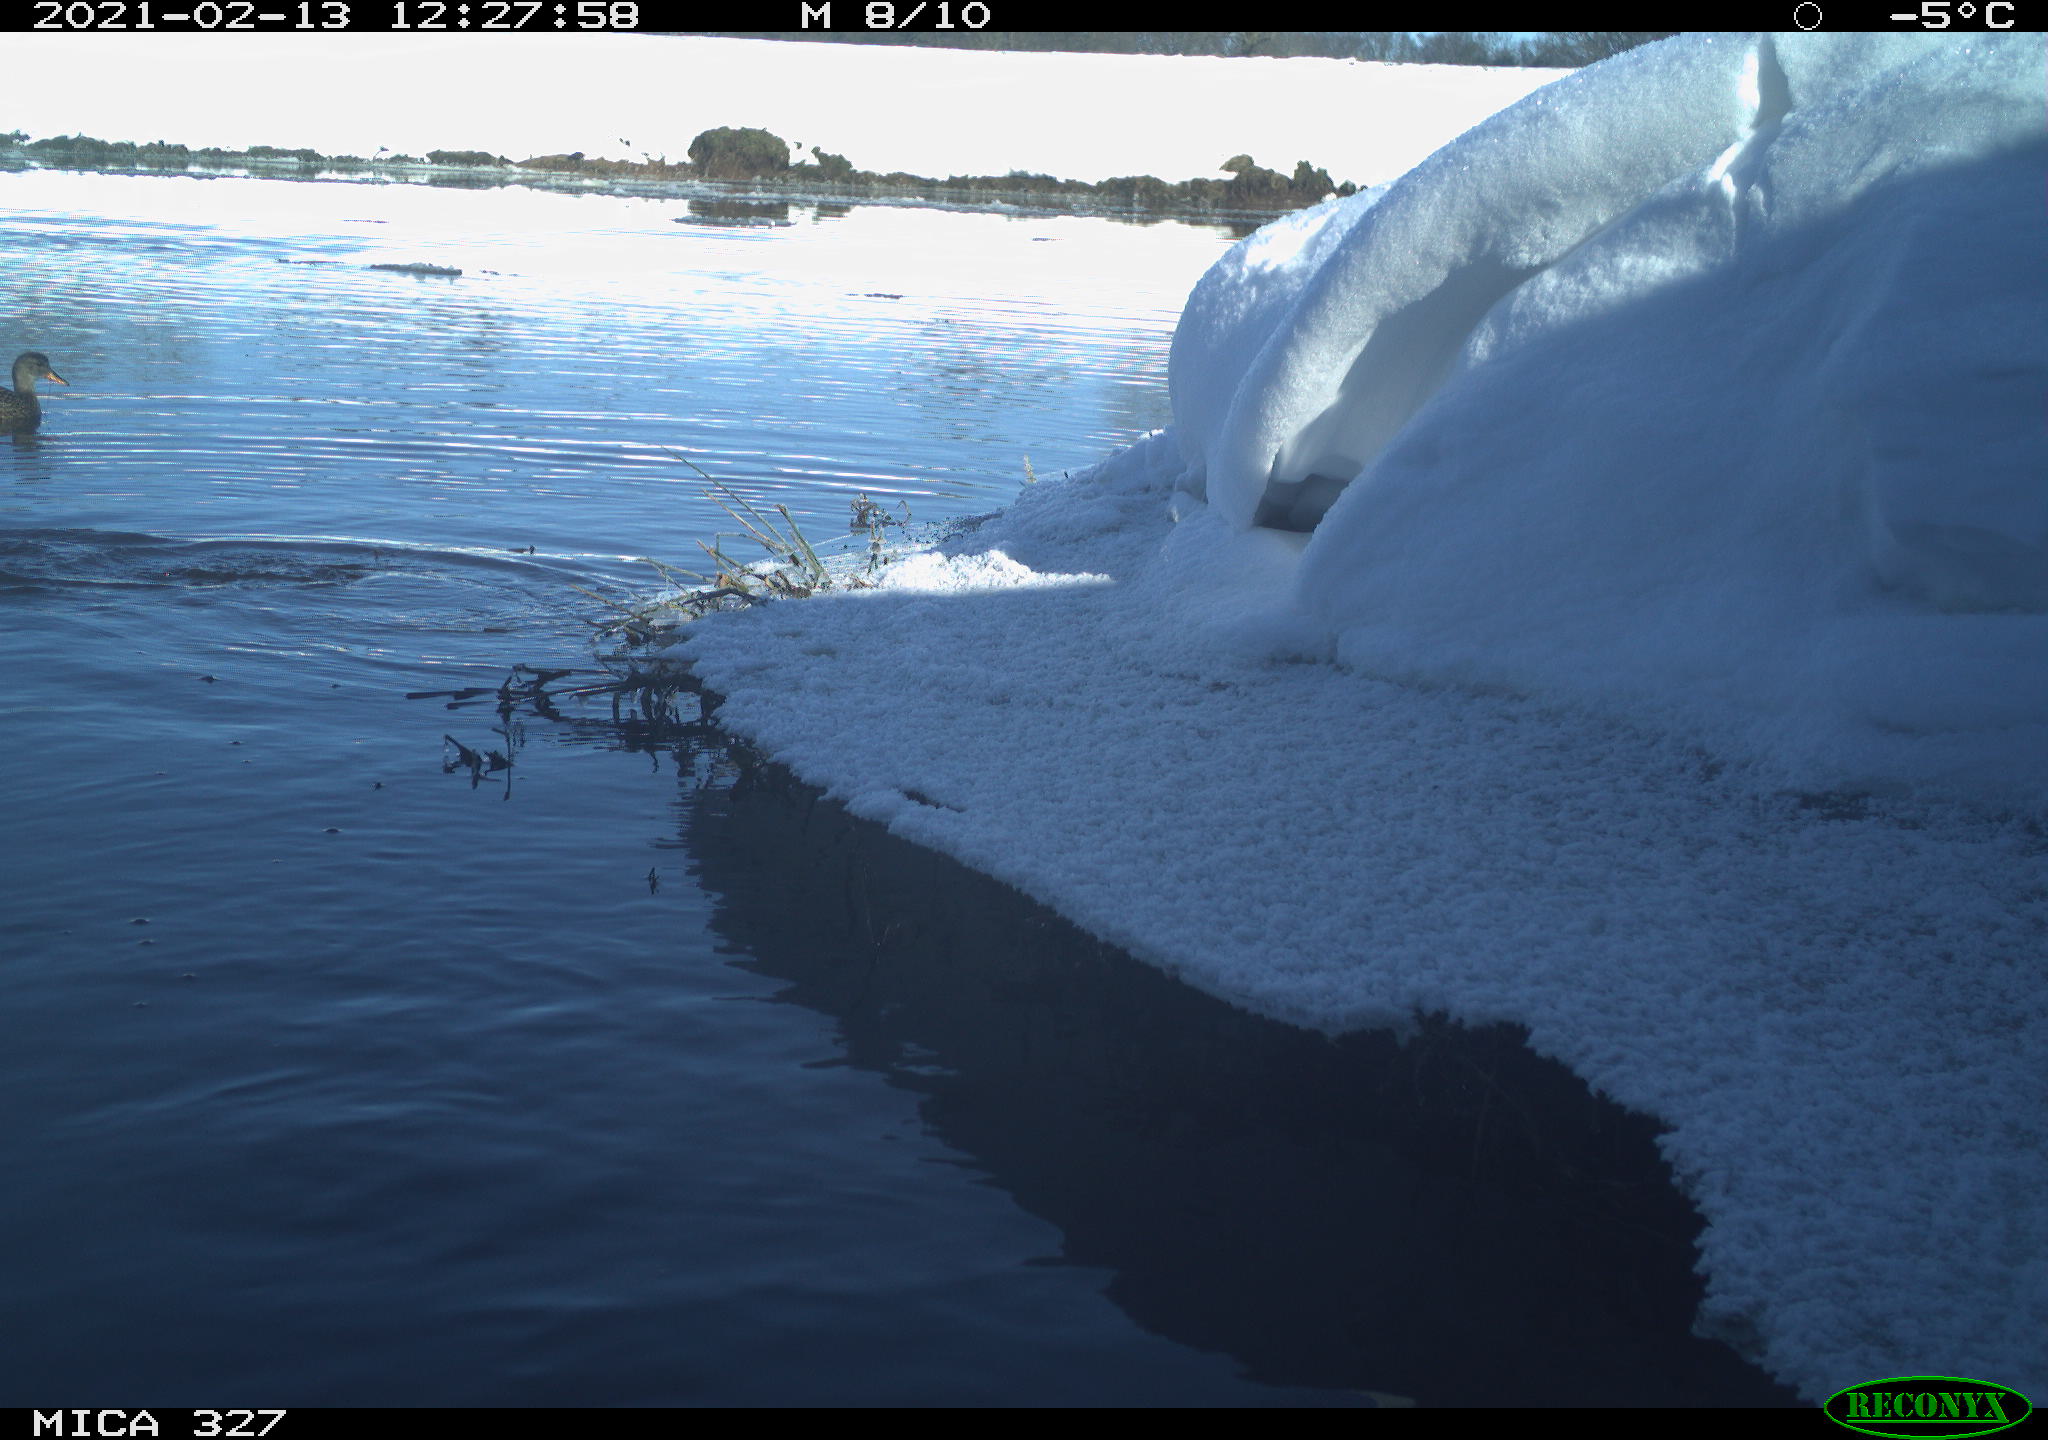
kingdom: Animalia
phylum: Chordata
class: Aves
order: Suliformes
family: Phalacrocoracidae
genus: Phalacrocorax
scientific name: Phalacrocorax carbo
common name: Great cormorant
